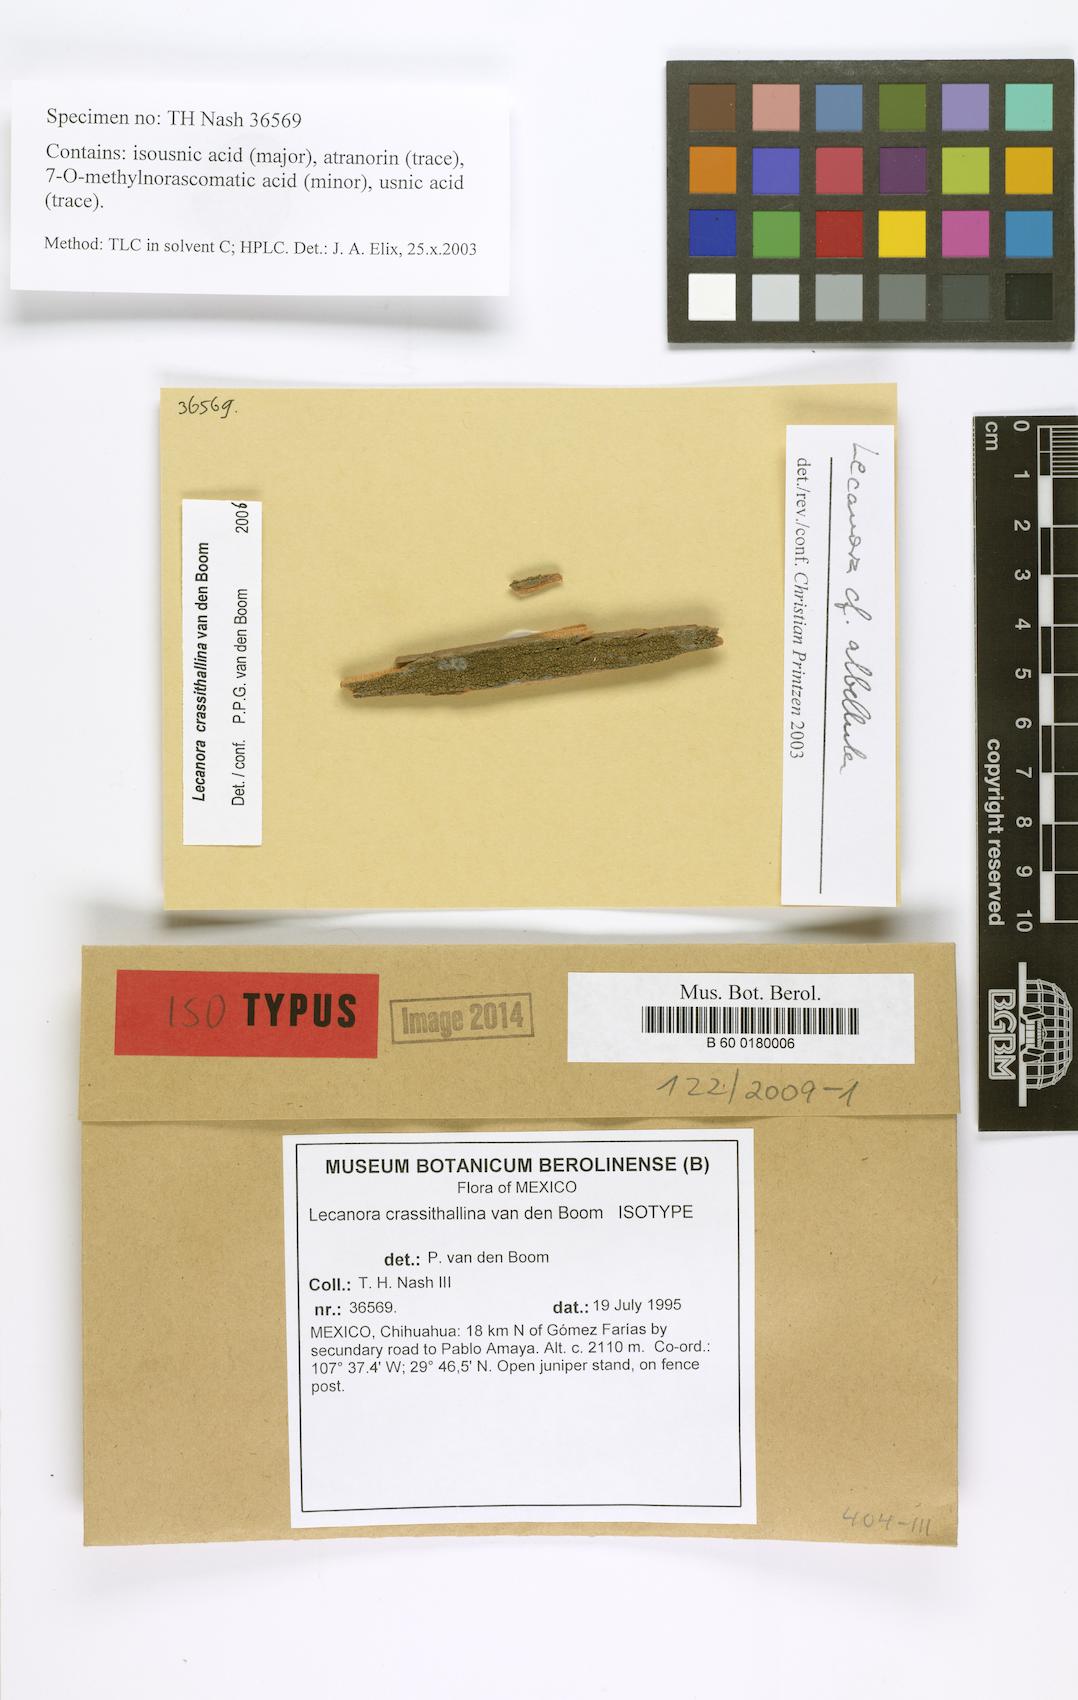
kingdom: Fungi
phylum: Ascomycota
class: Lecanoromycetes
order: Lecanorales
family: Lecanoraceae
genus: Lecanora
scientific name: Lecanora crassithallina
